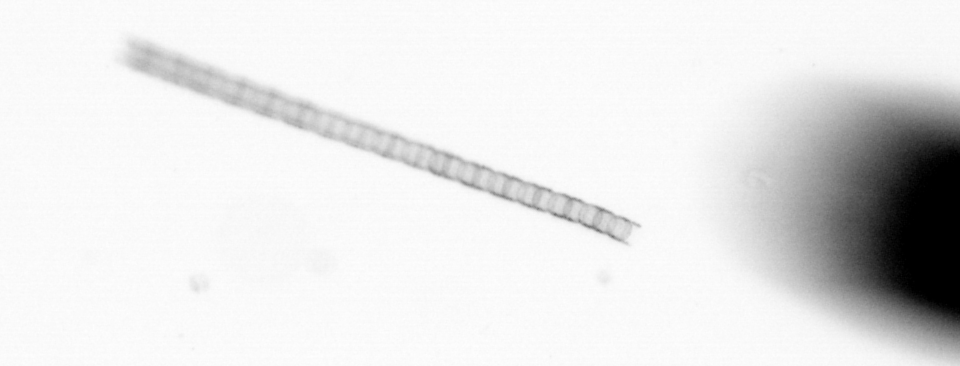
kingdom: Chromista
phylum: Ochrophyta
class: Bacillariophyceae
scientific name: Bacillariophyceae
